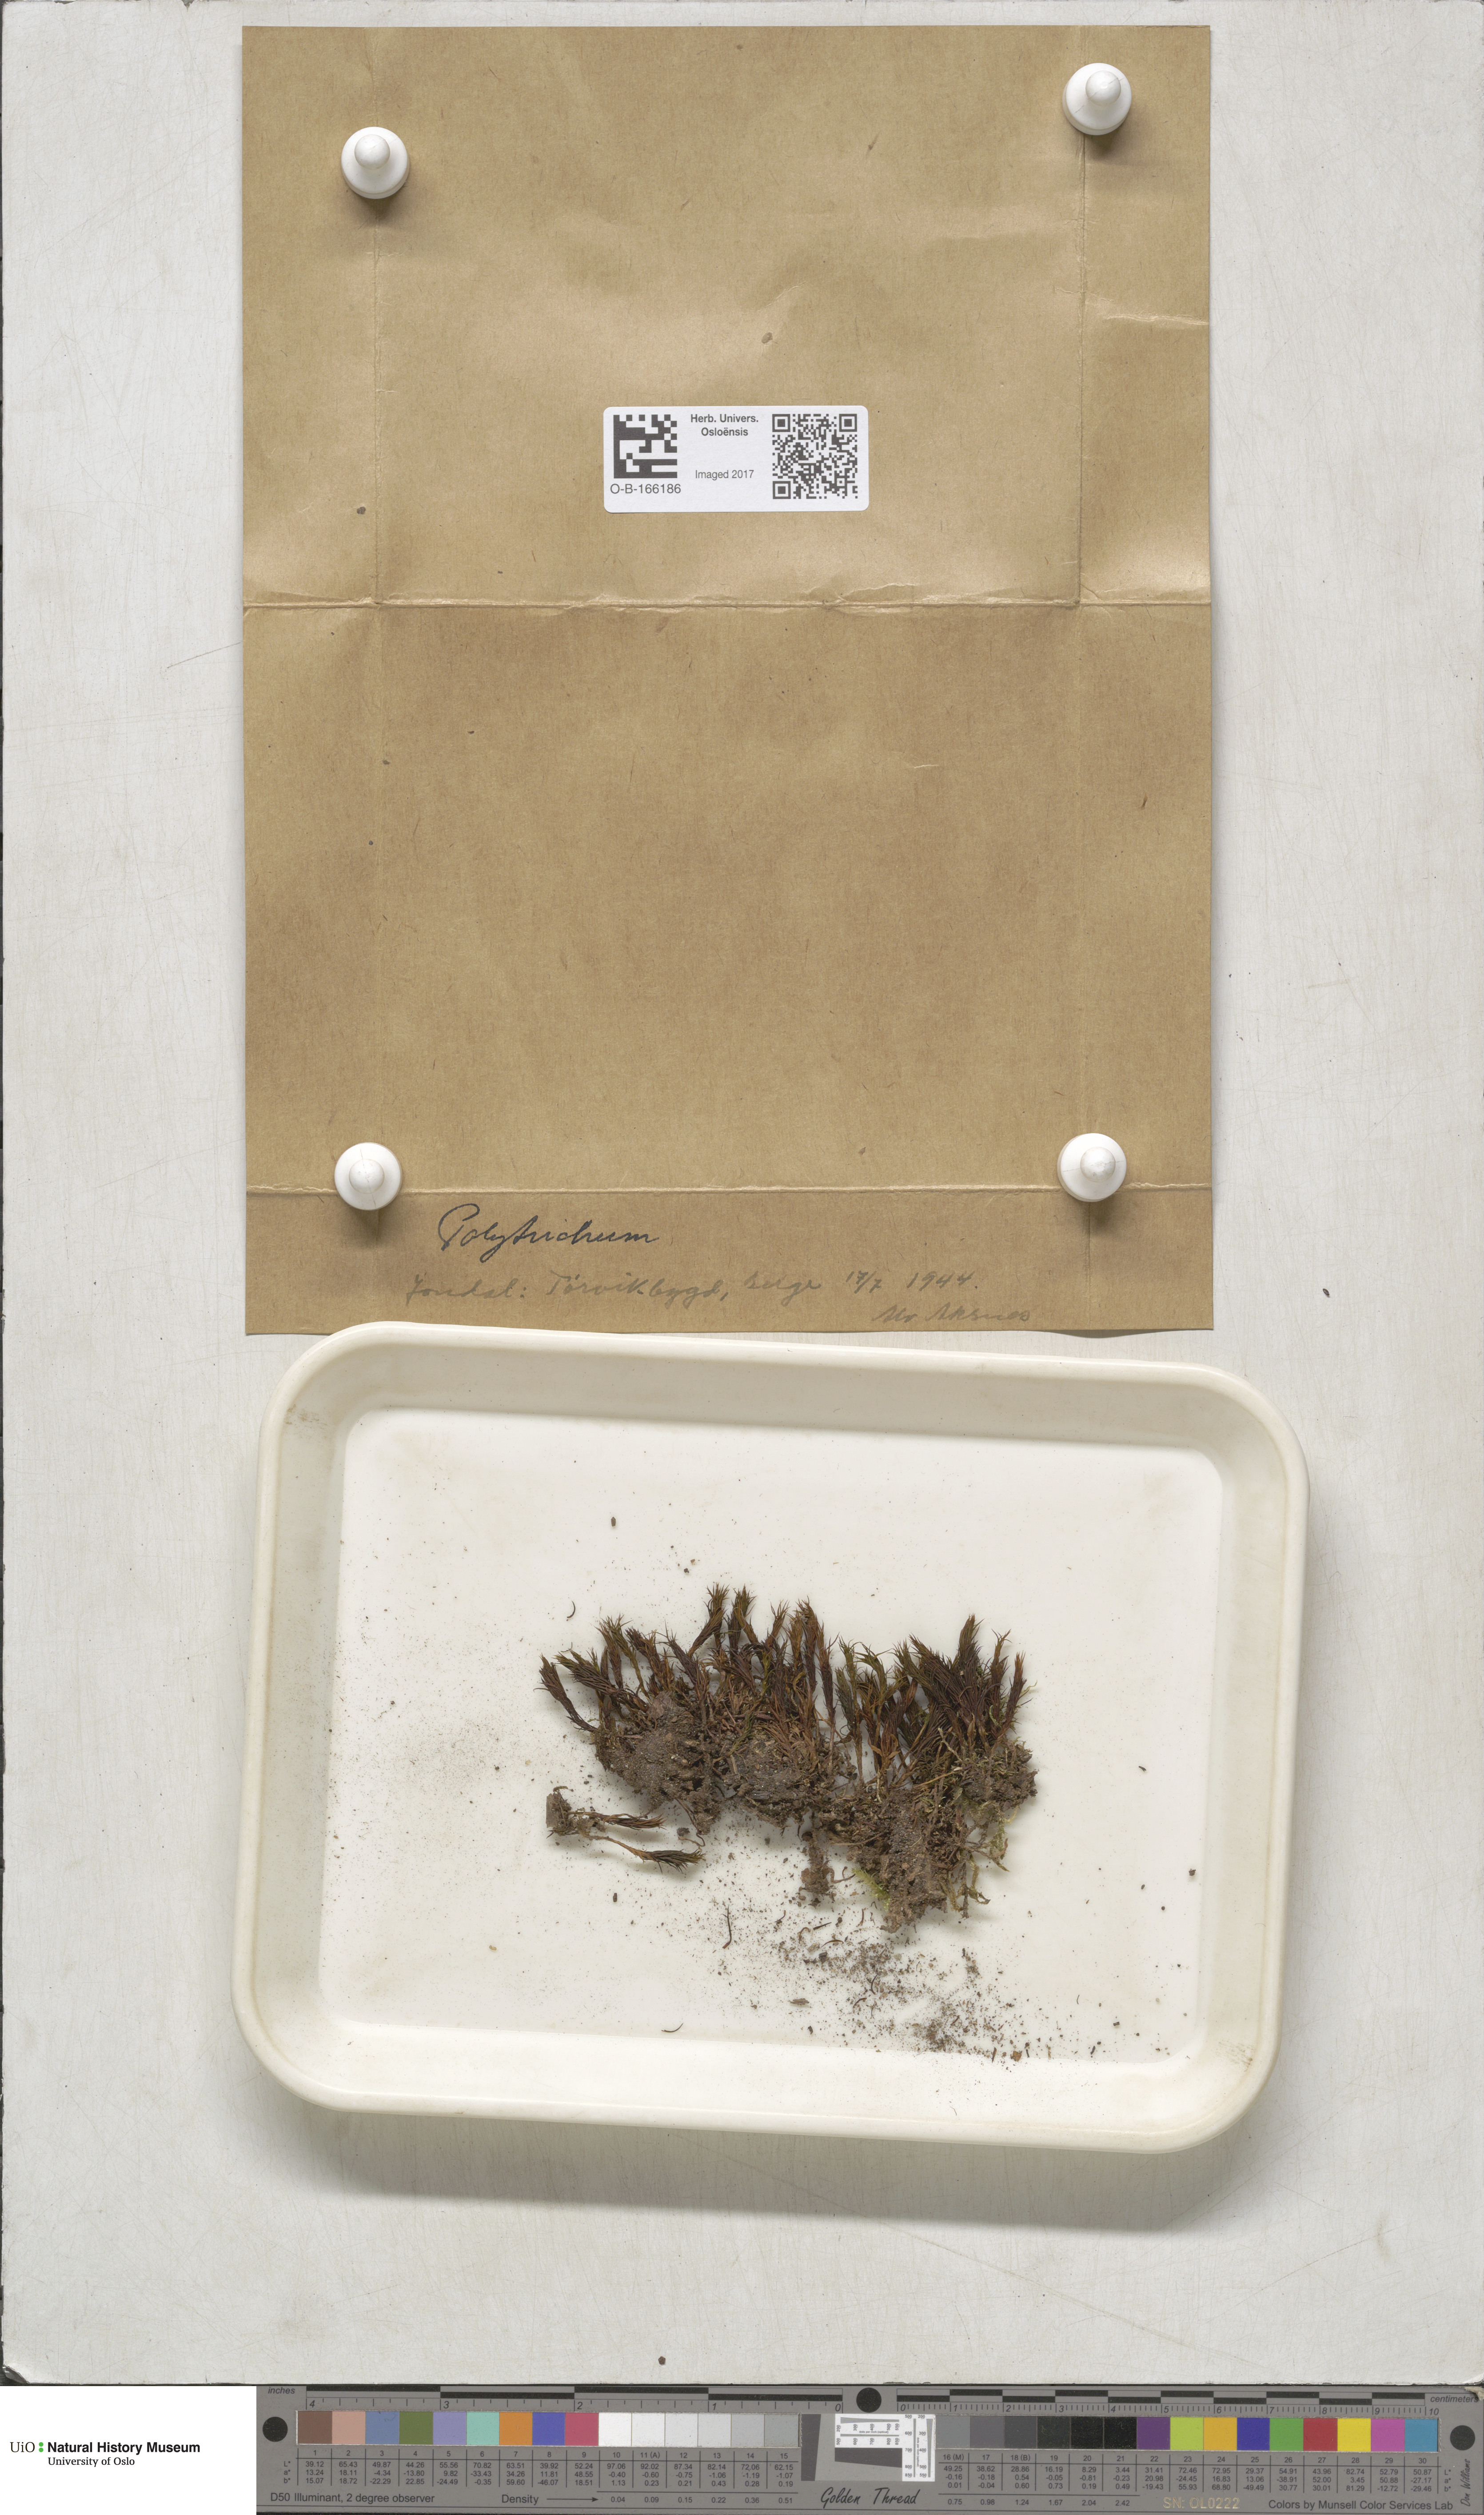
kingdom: Plantae
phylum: Bryophyta
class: Polytrichopsida
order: Polytrichales
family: Polytrichaceae
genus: Polytrichum
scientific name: Polytrichum
